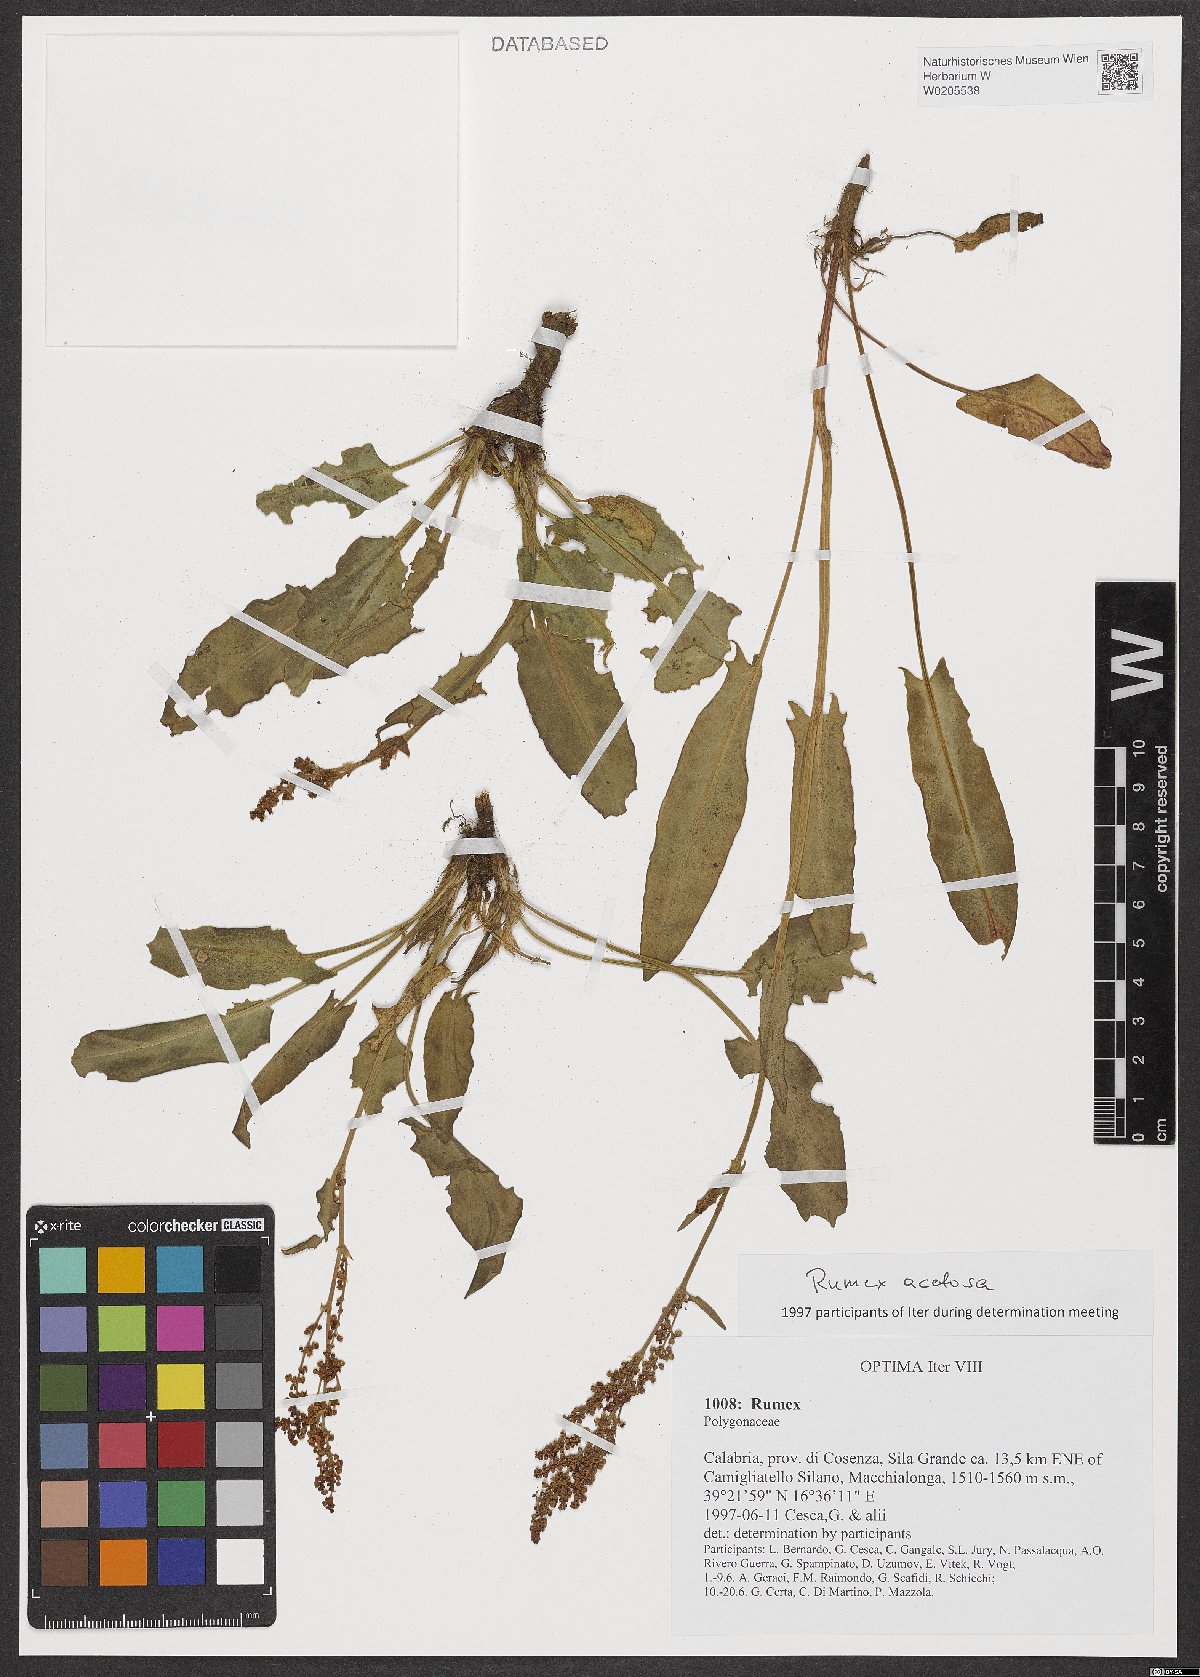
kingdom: Plantae
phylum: Tracheophyta
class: Magnoliopsida
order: Caryophyllales
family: Polygonaceae
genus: Rumex
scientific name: Rumex acetosa
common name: Garden sorrel
